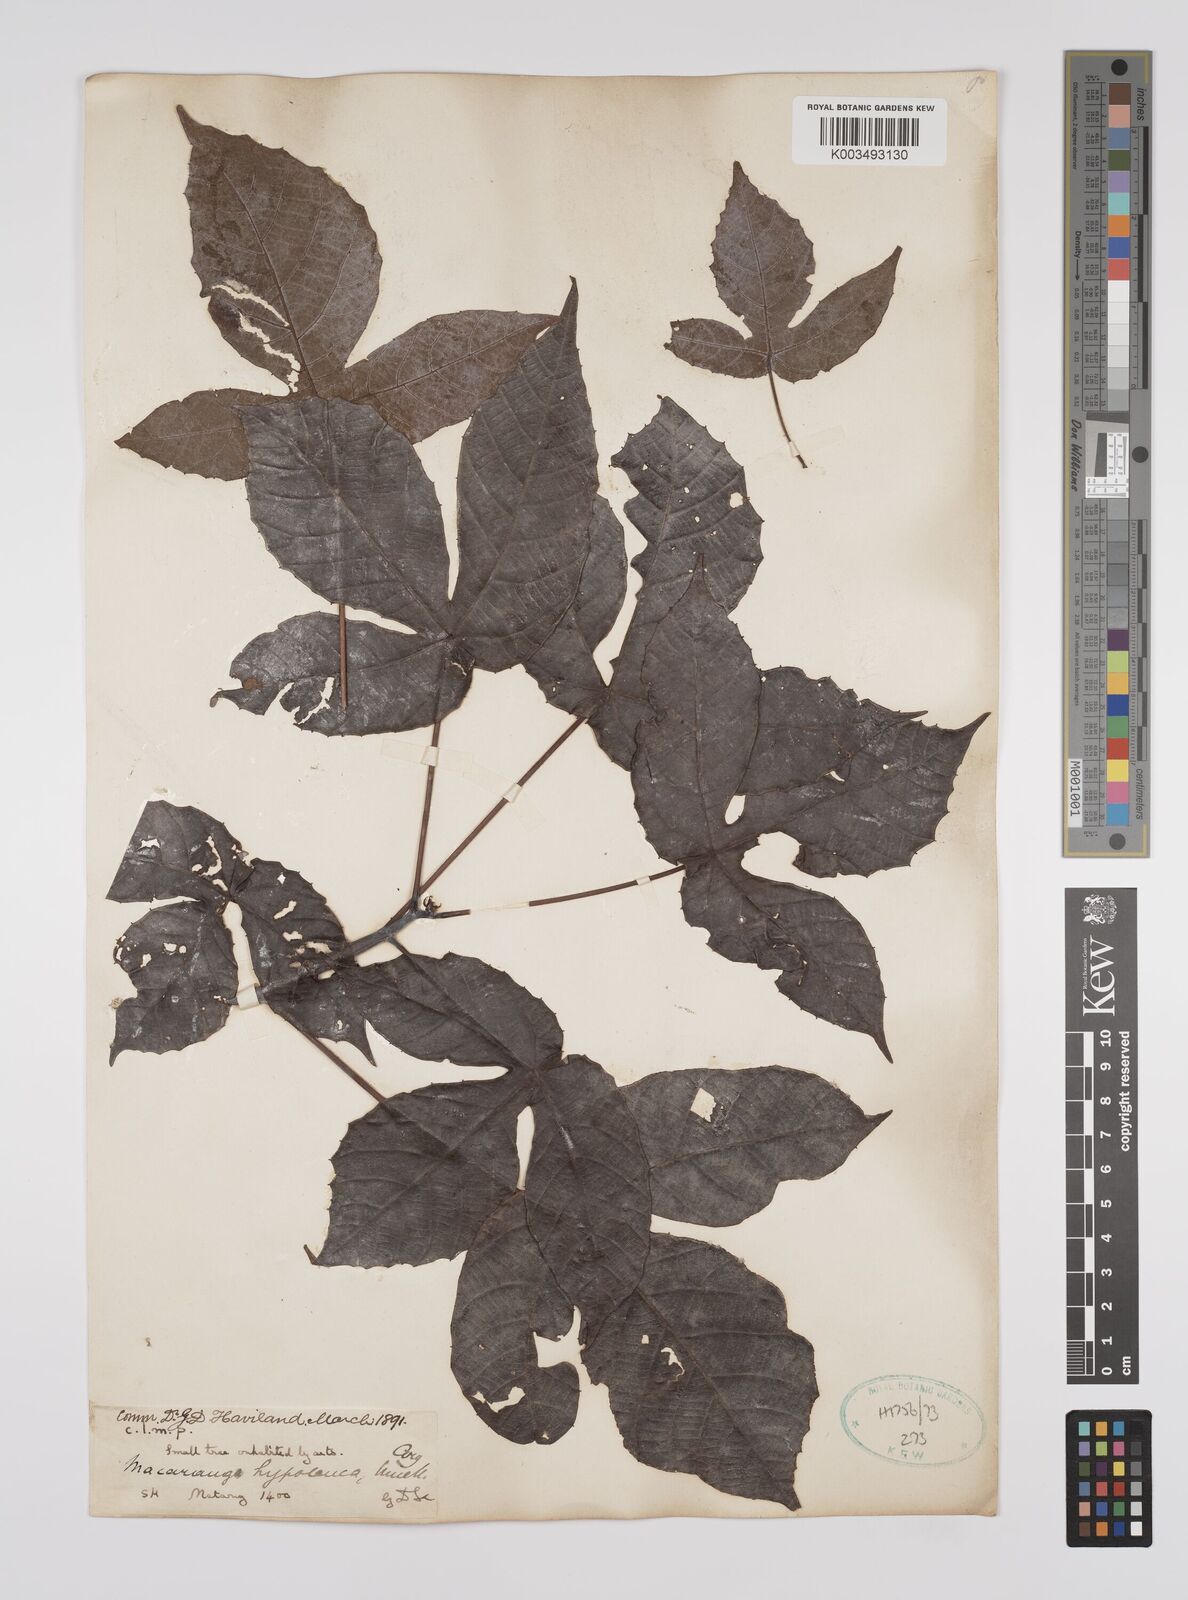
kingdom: Plantae
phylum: Tracheophyta
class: Magnoliopsida
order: Malpighiales
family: Euphorbiaceae
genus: Macaranga
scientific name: Macaranga hypoleuca
